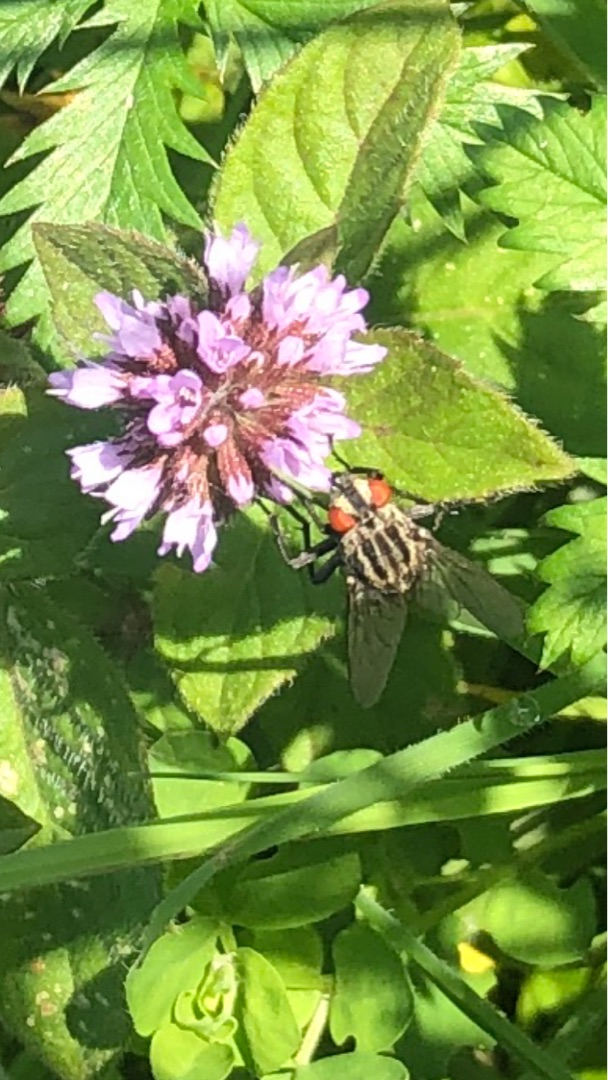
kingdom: Animalia
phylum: Arthropoda
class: Insecta
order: Diptera
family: Sarcophagidae
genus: Sarcophaga
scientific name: Sarcophaga
